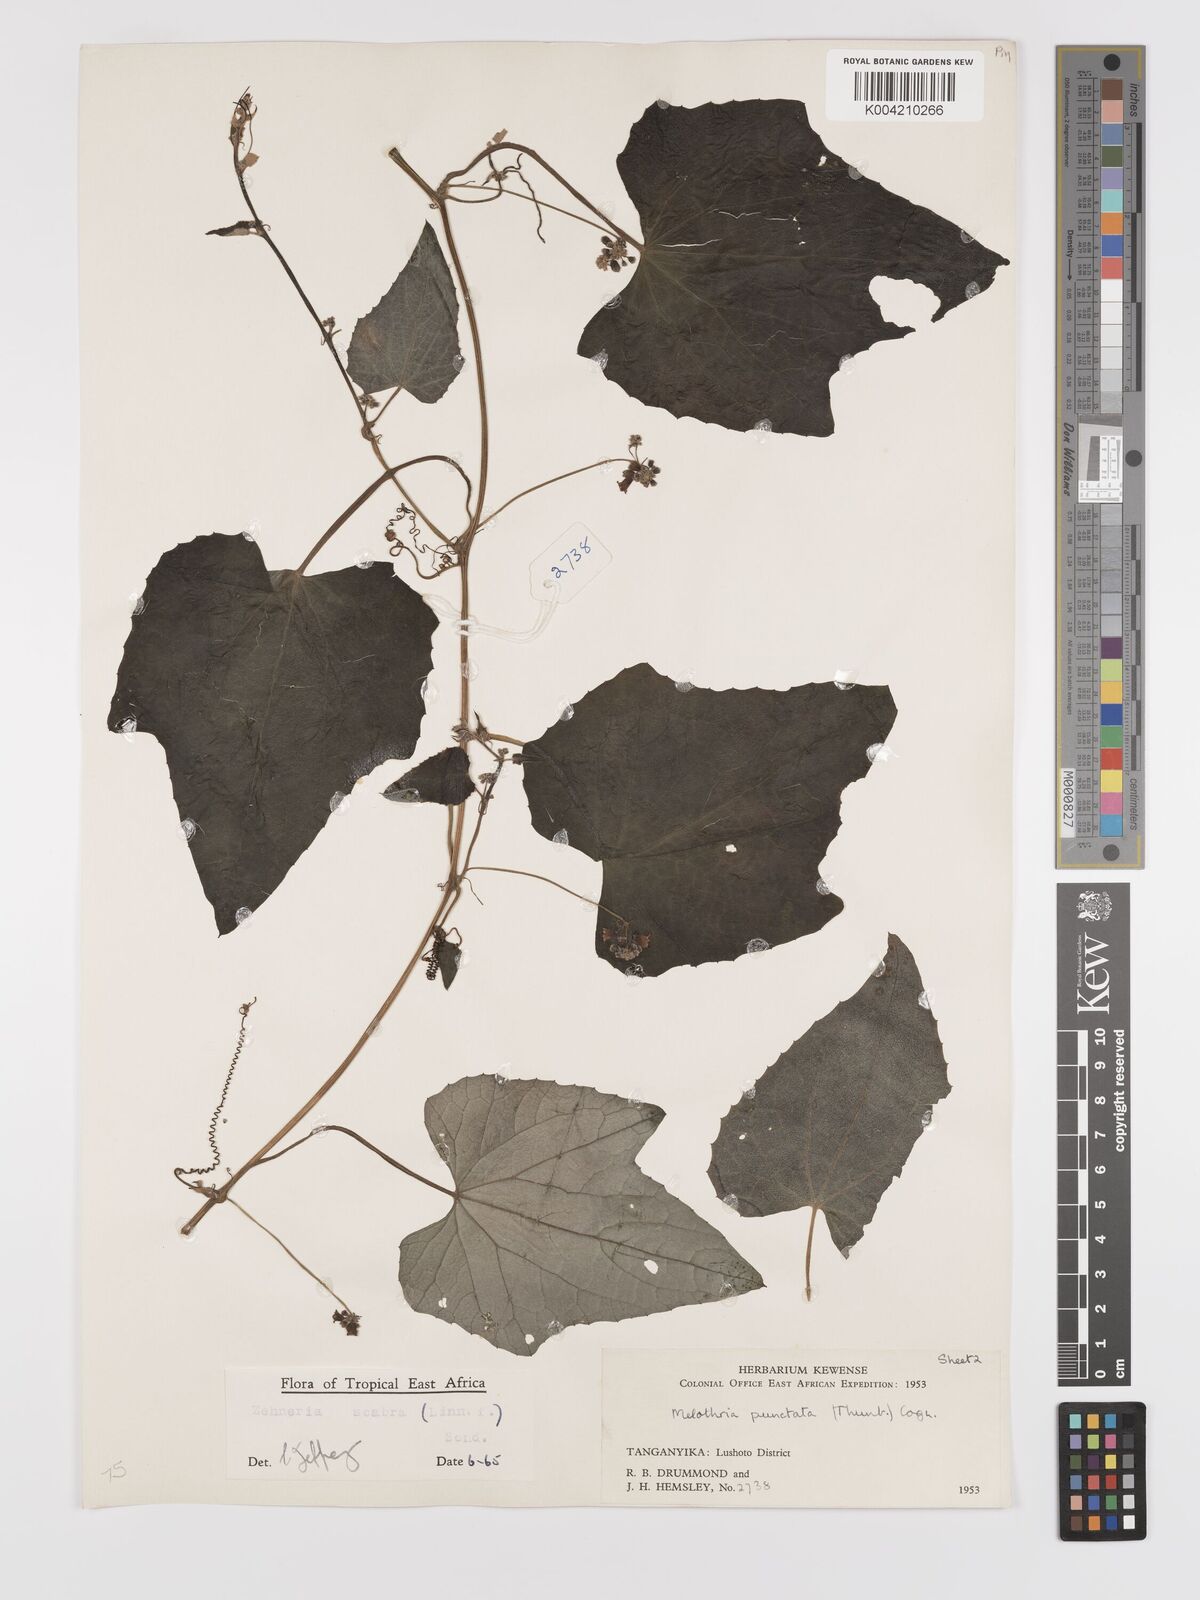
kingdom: Plantae
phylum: Tracheophyta
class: Magnoliopsida
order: Cucurbitales
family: Cucurbitaceae
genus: Zehneria
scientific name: Zehneria scabra
